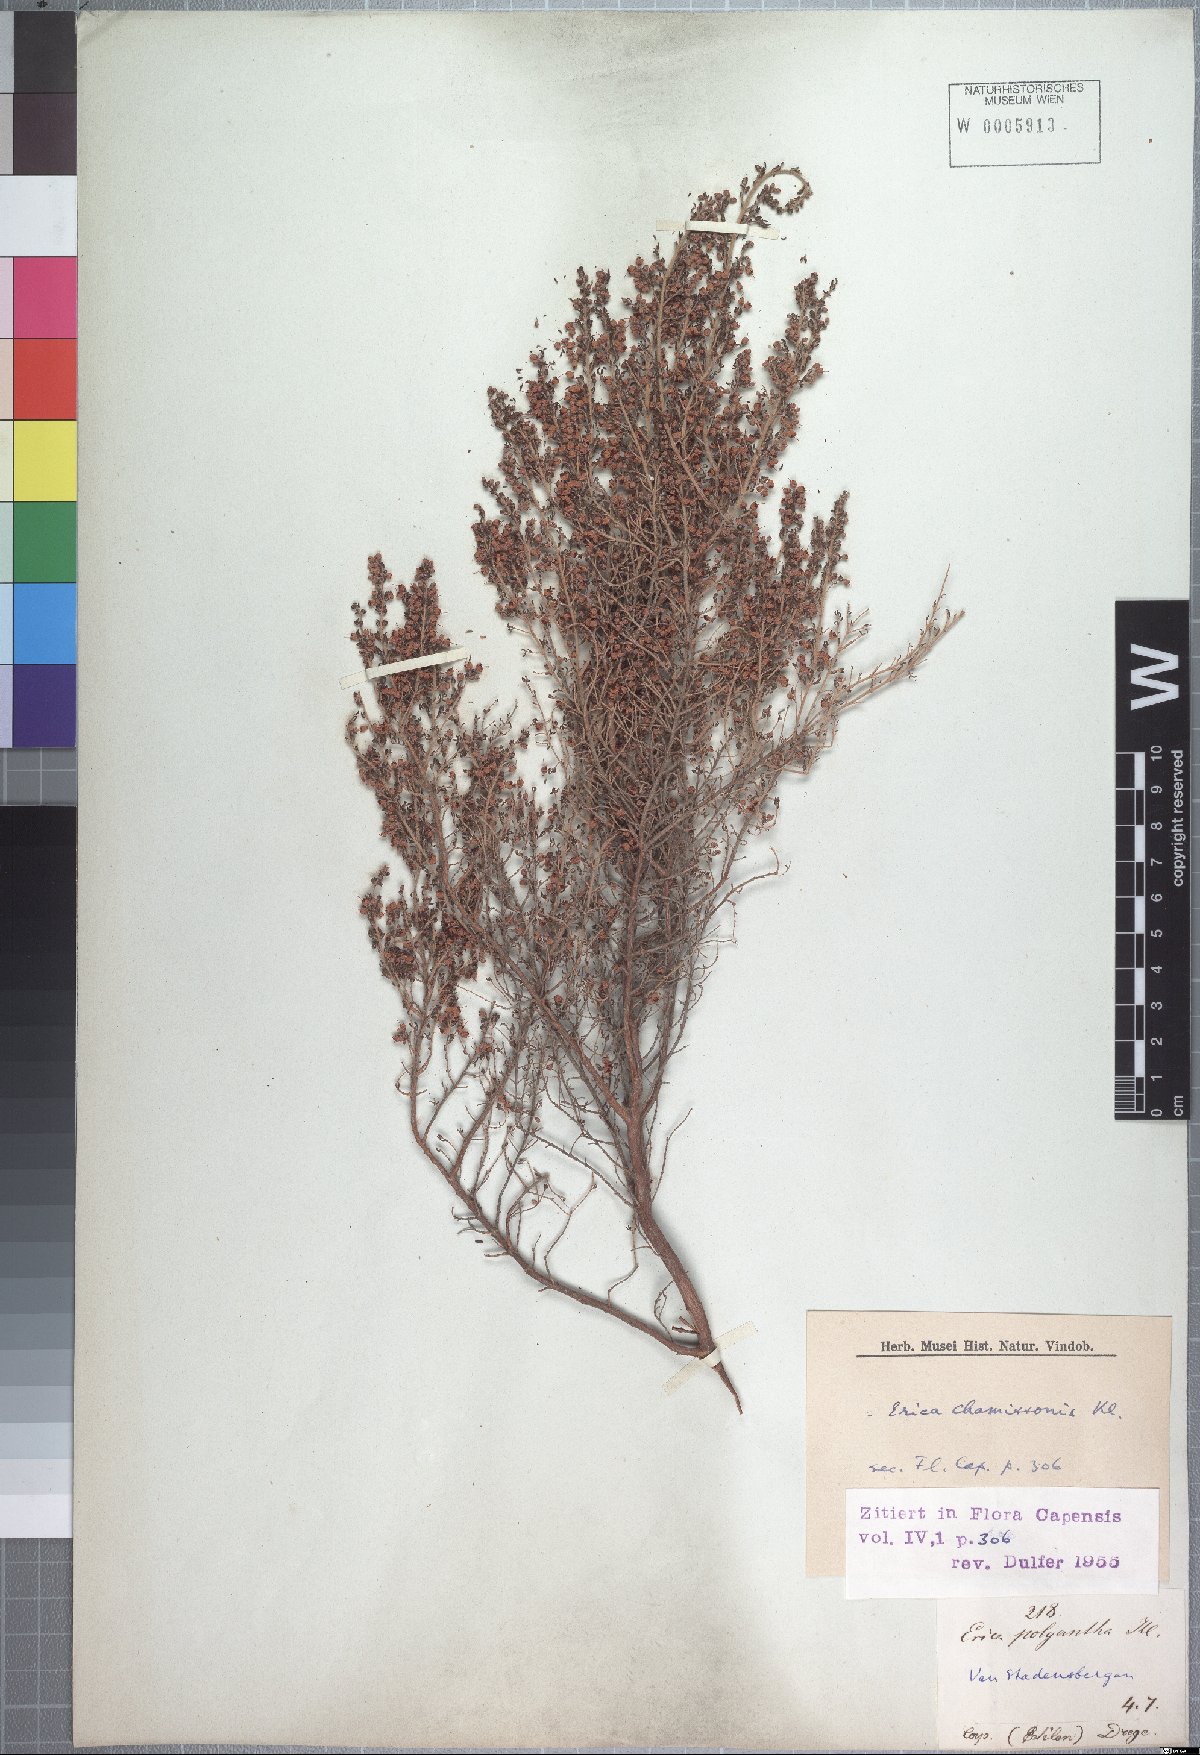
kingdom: Plantae
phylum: Tracheophyta
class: Magnoliopsida
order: Ericales
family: Ericaceae
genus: Erica
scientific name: Erica chamissonis
